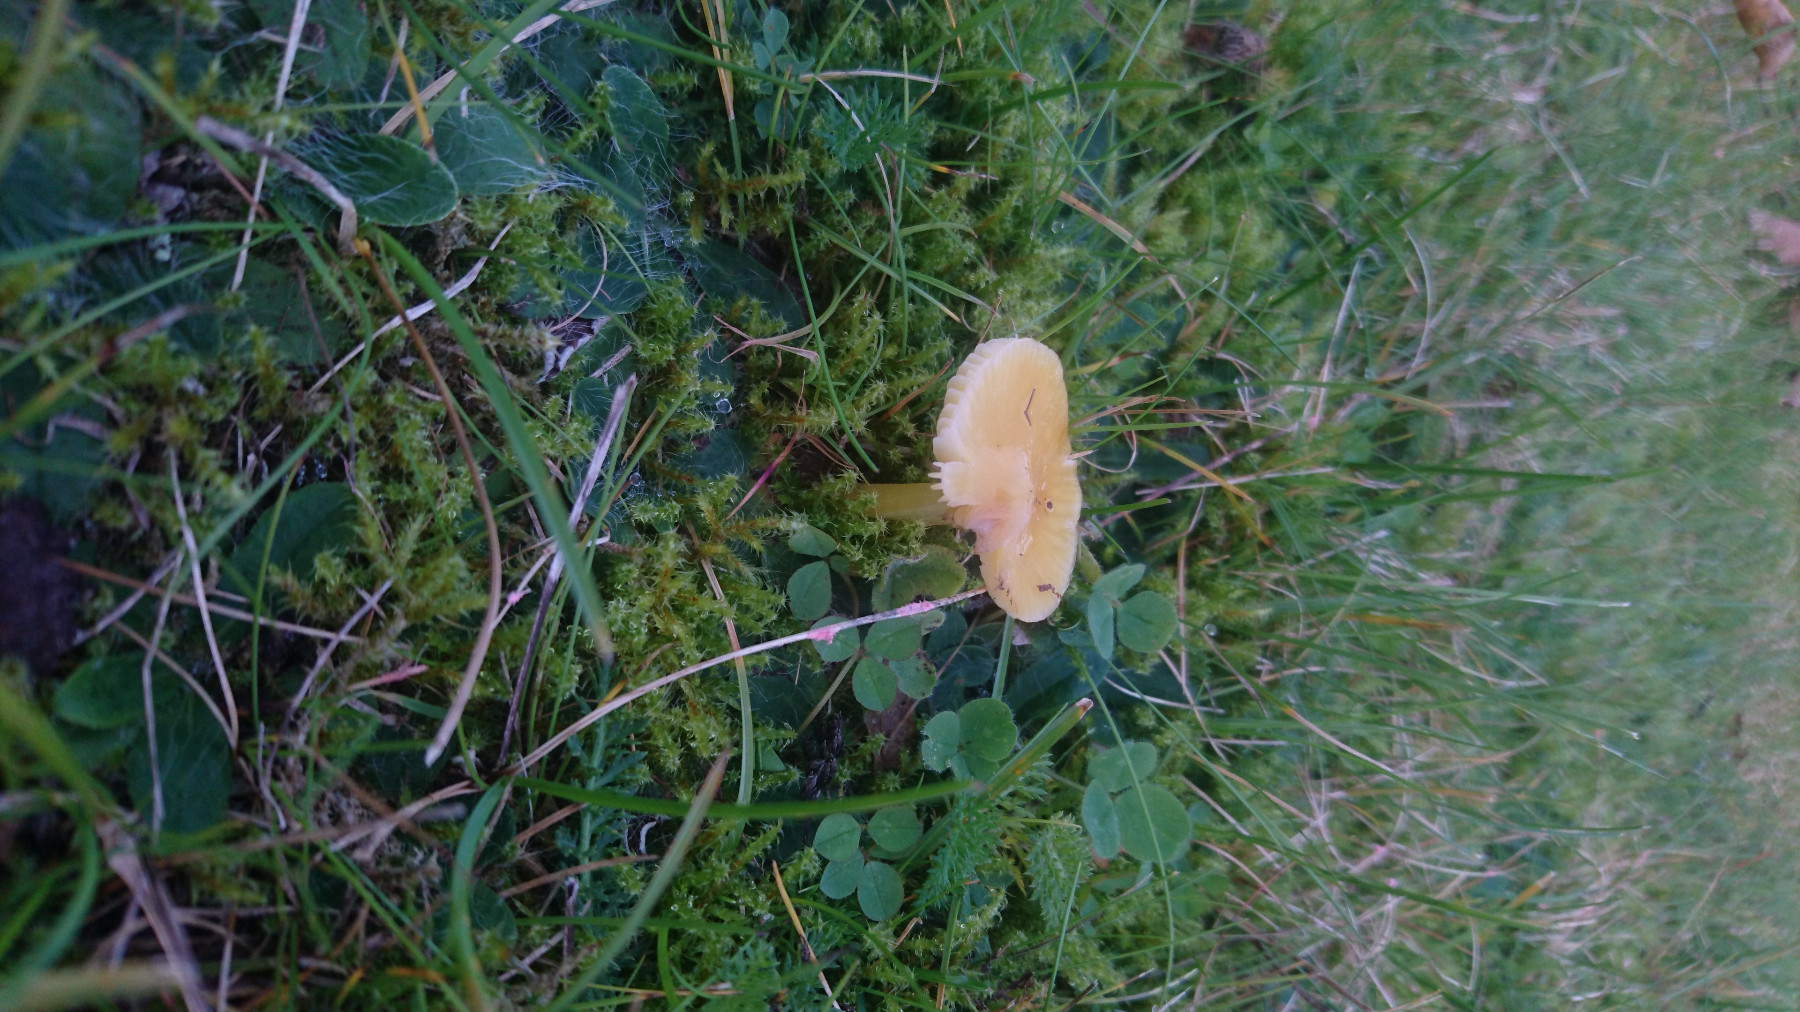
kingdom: Fungi
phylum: Basidiomycota
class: Agaricomycetes
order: Agaricales
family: Hygrophoraceae
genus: Hygrocybe
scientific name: Hygrocybe acutoconica
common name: spidspuklet vokshat
